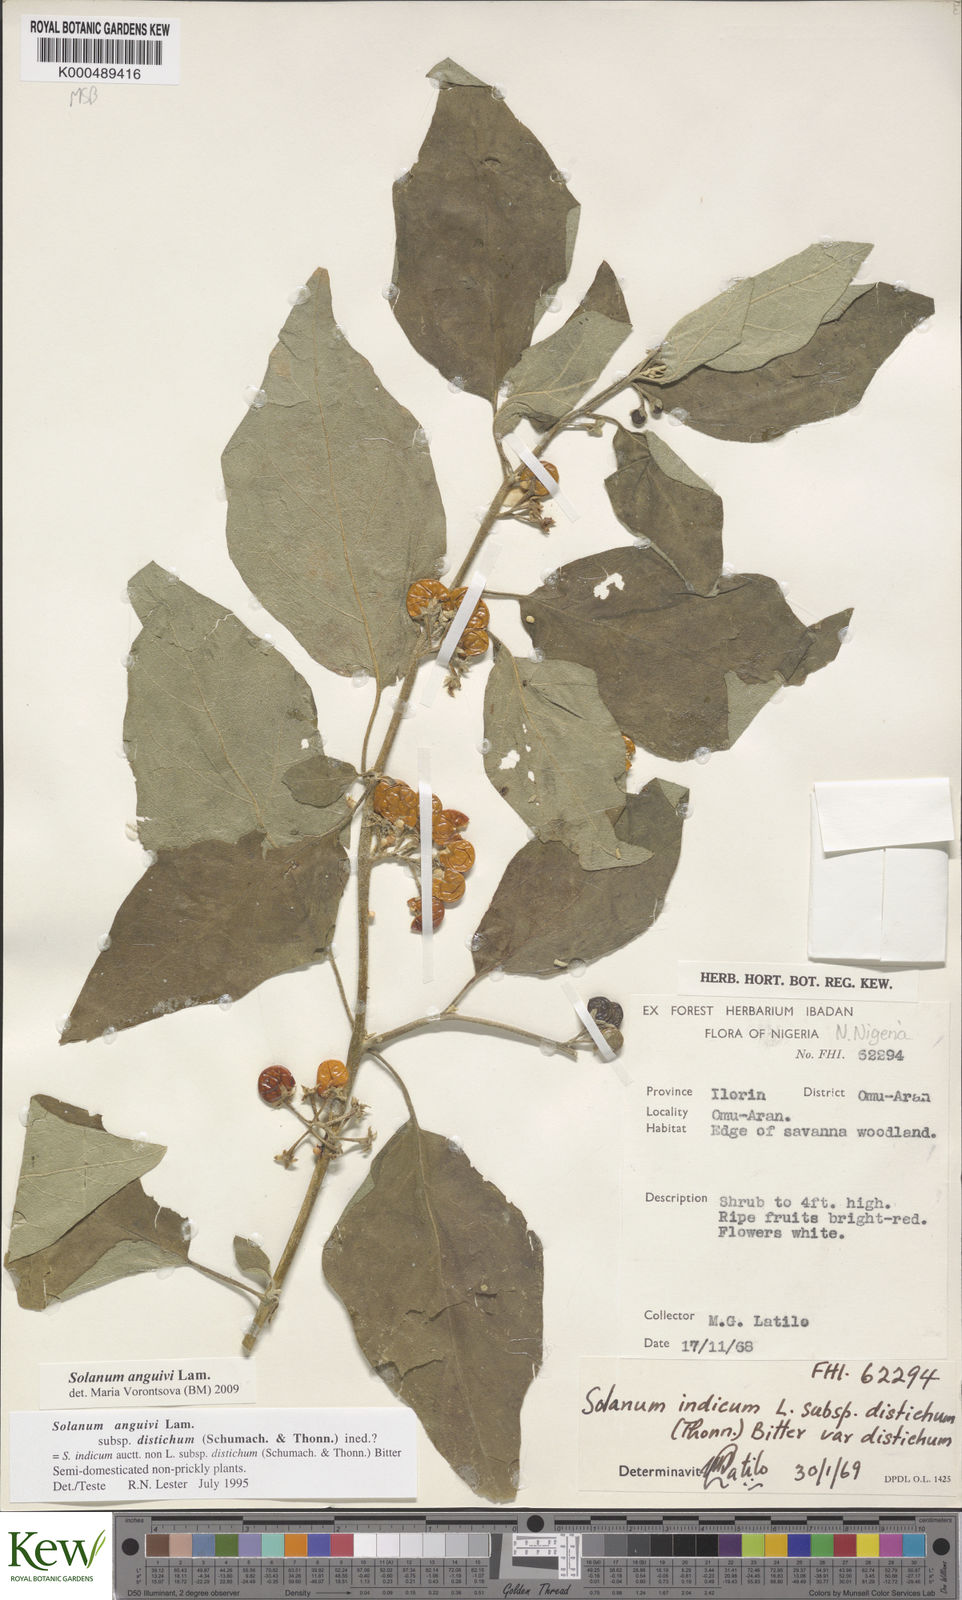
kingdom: Plantae
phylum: Tracheophyta
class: Magnoliopsida
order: Solanales
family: Solanaceae
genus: Solanum
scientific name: Solanum anguivi
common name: Forest bitterberry
